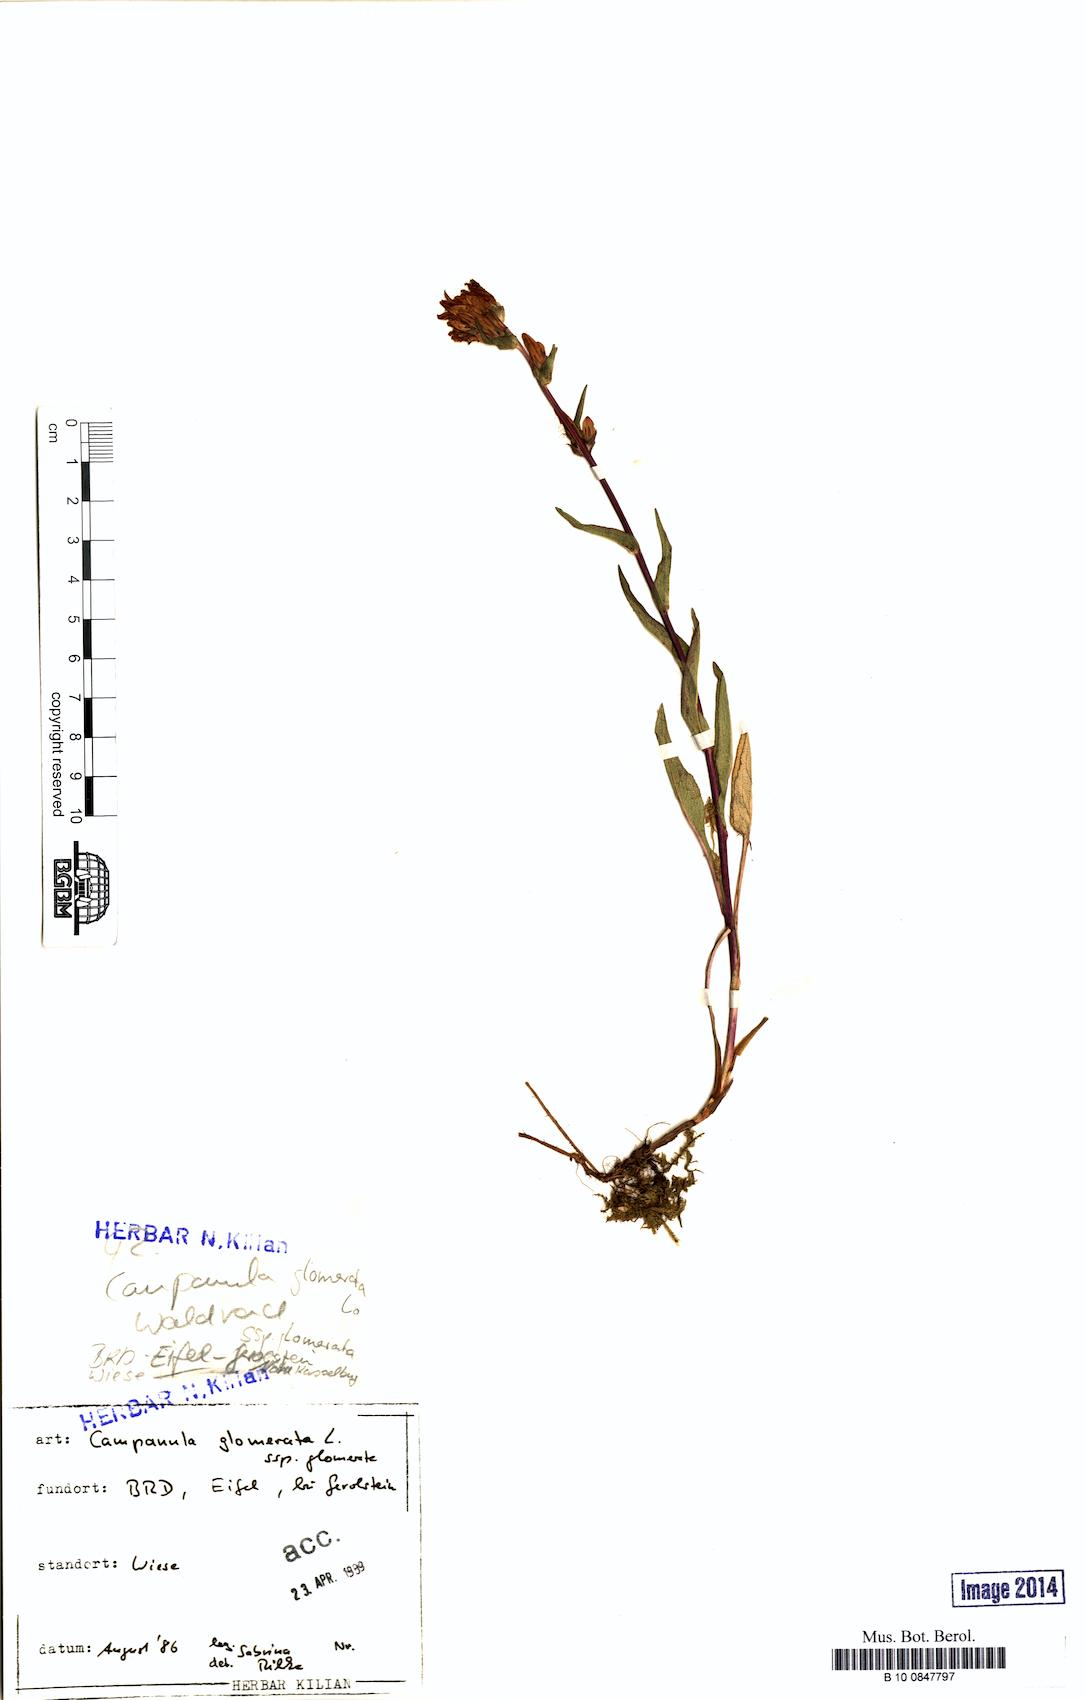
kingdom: Plantae
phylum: Tracheophyta
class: Magnoliopsida
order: Asterales
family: Campanulaceae
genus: Campanula
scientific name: Campanula glomerata
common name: Clustered bellflower
